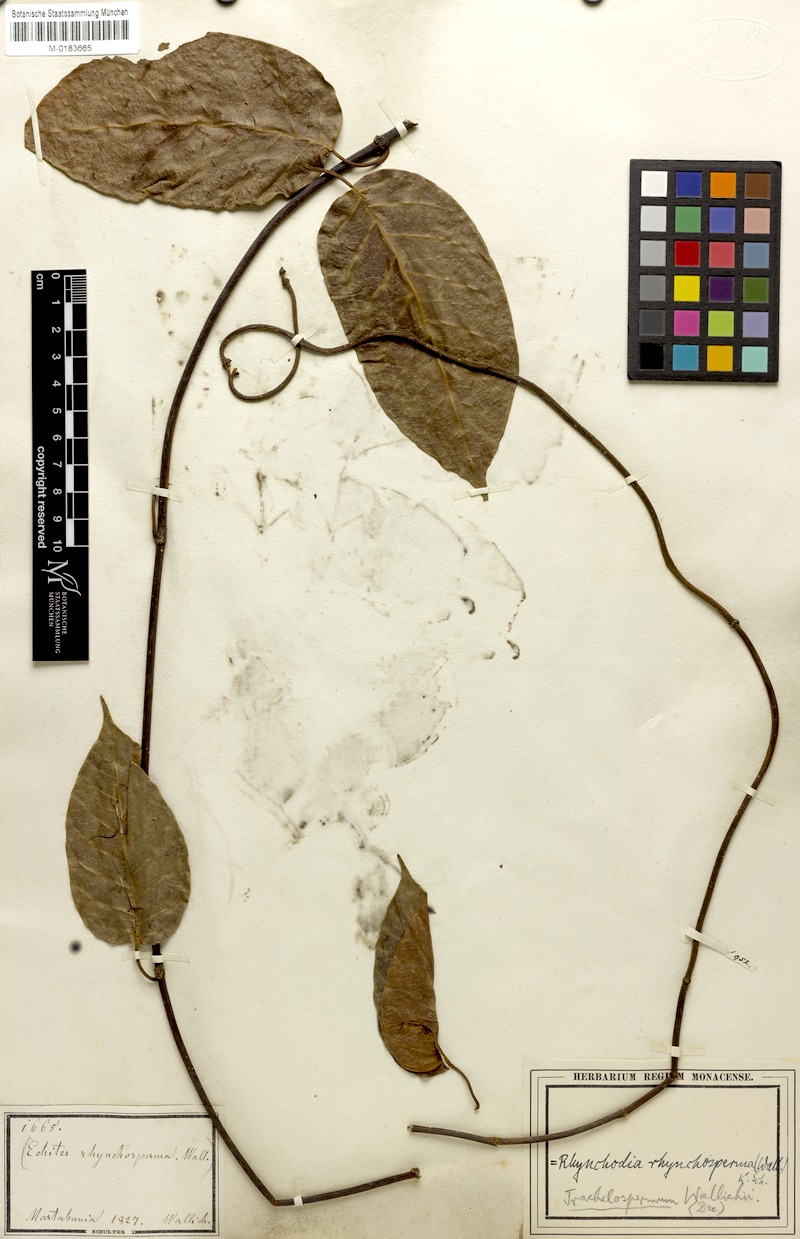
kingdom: Plantae
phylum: Tracheophyta
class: Magnoliopsida
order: Gentianales
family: Apocynaceae
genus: Chonemorpha
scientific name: Chonemorpha verrucosa
